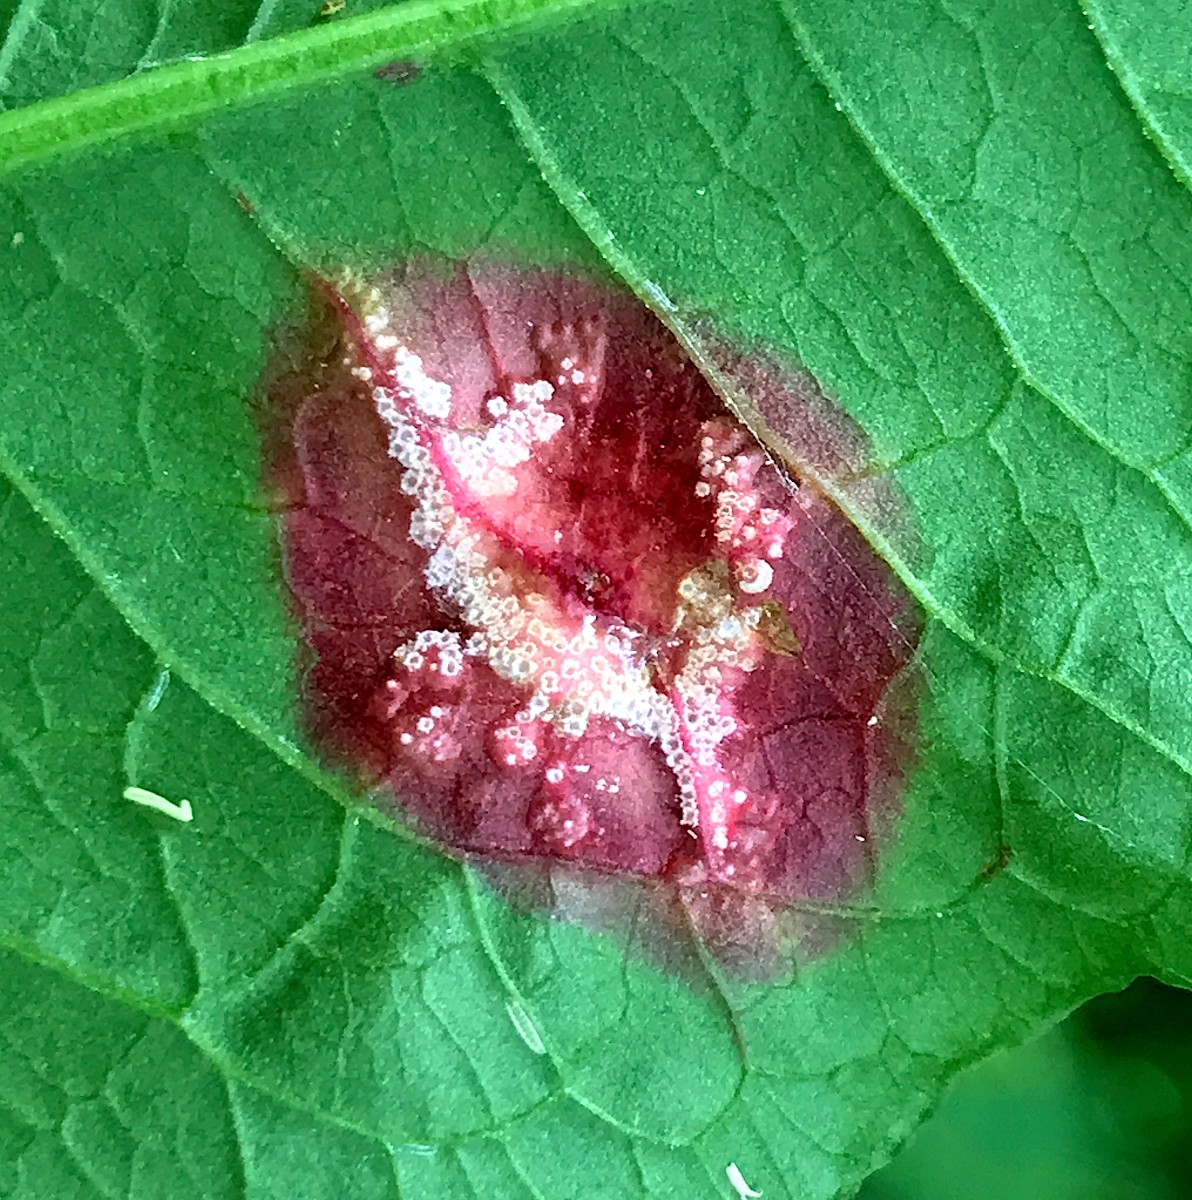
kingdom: Fungi
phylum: Basidiomycota
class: Pucciniomycetes
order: Pucciniales
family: Pucciniaceae
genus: Puccinia
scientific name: Puccinia phragmitis
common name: tagrør-tvecellerust
